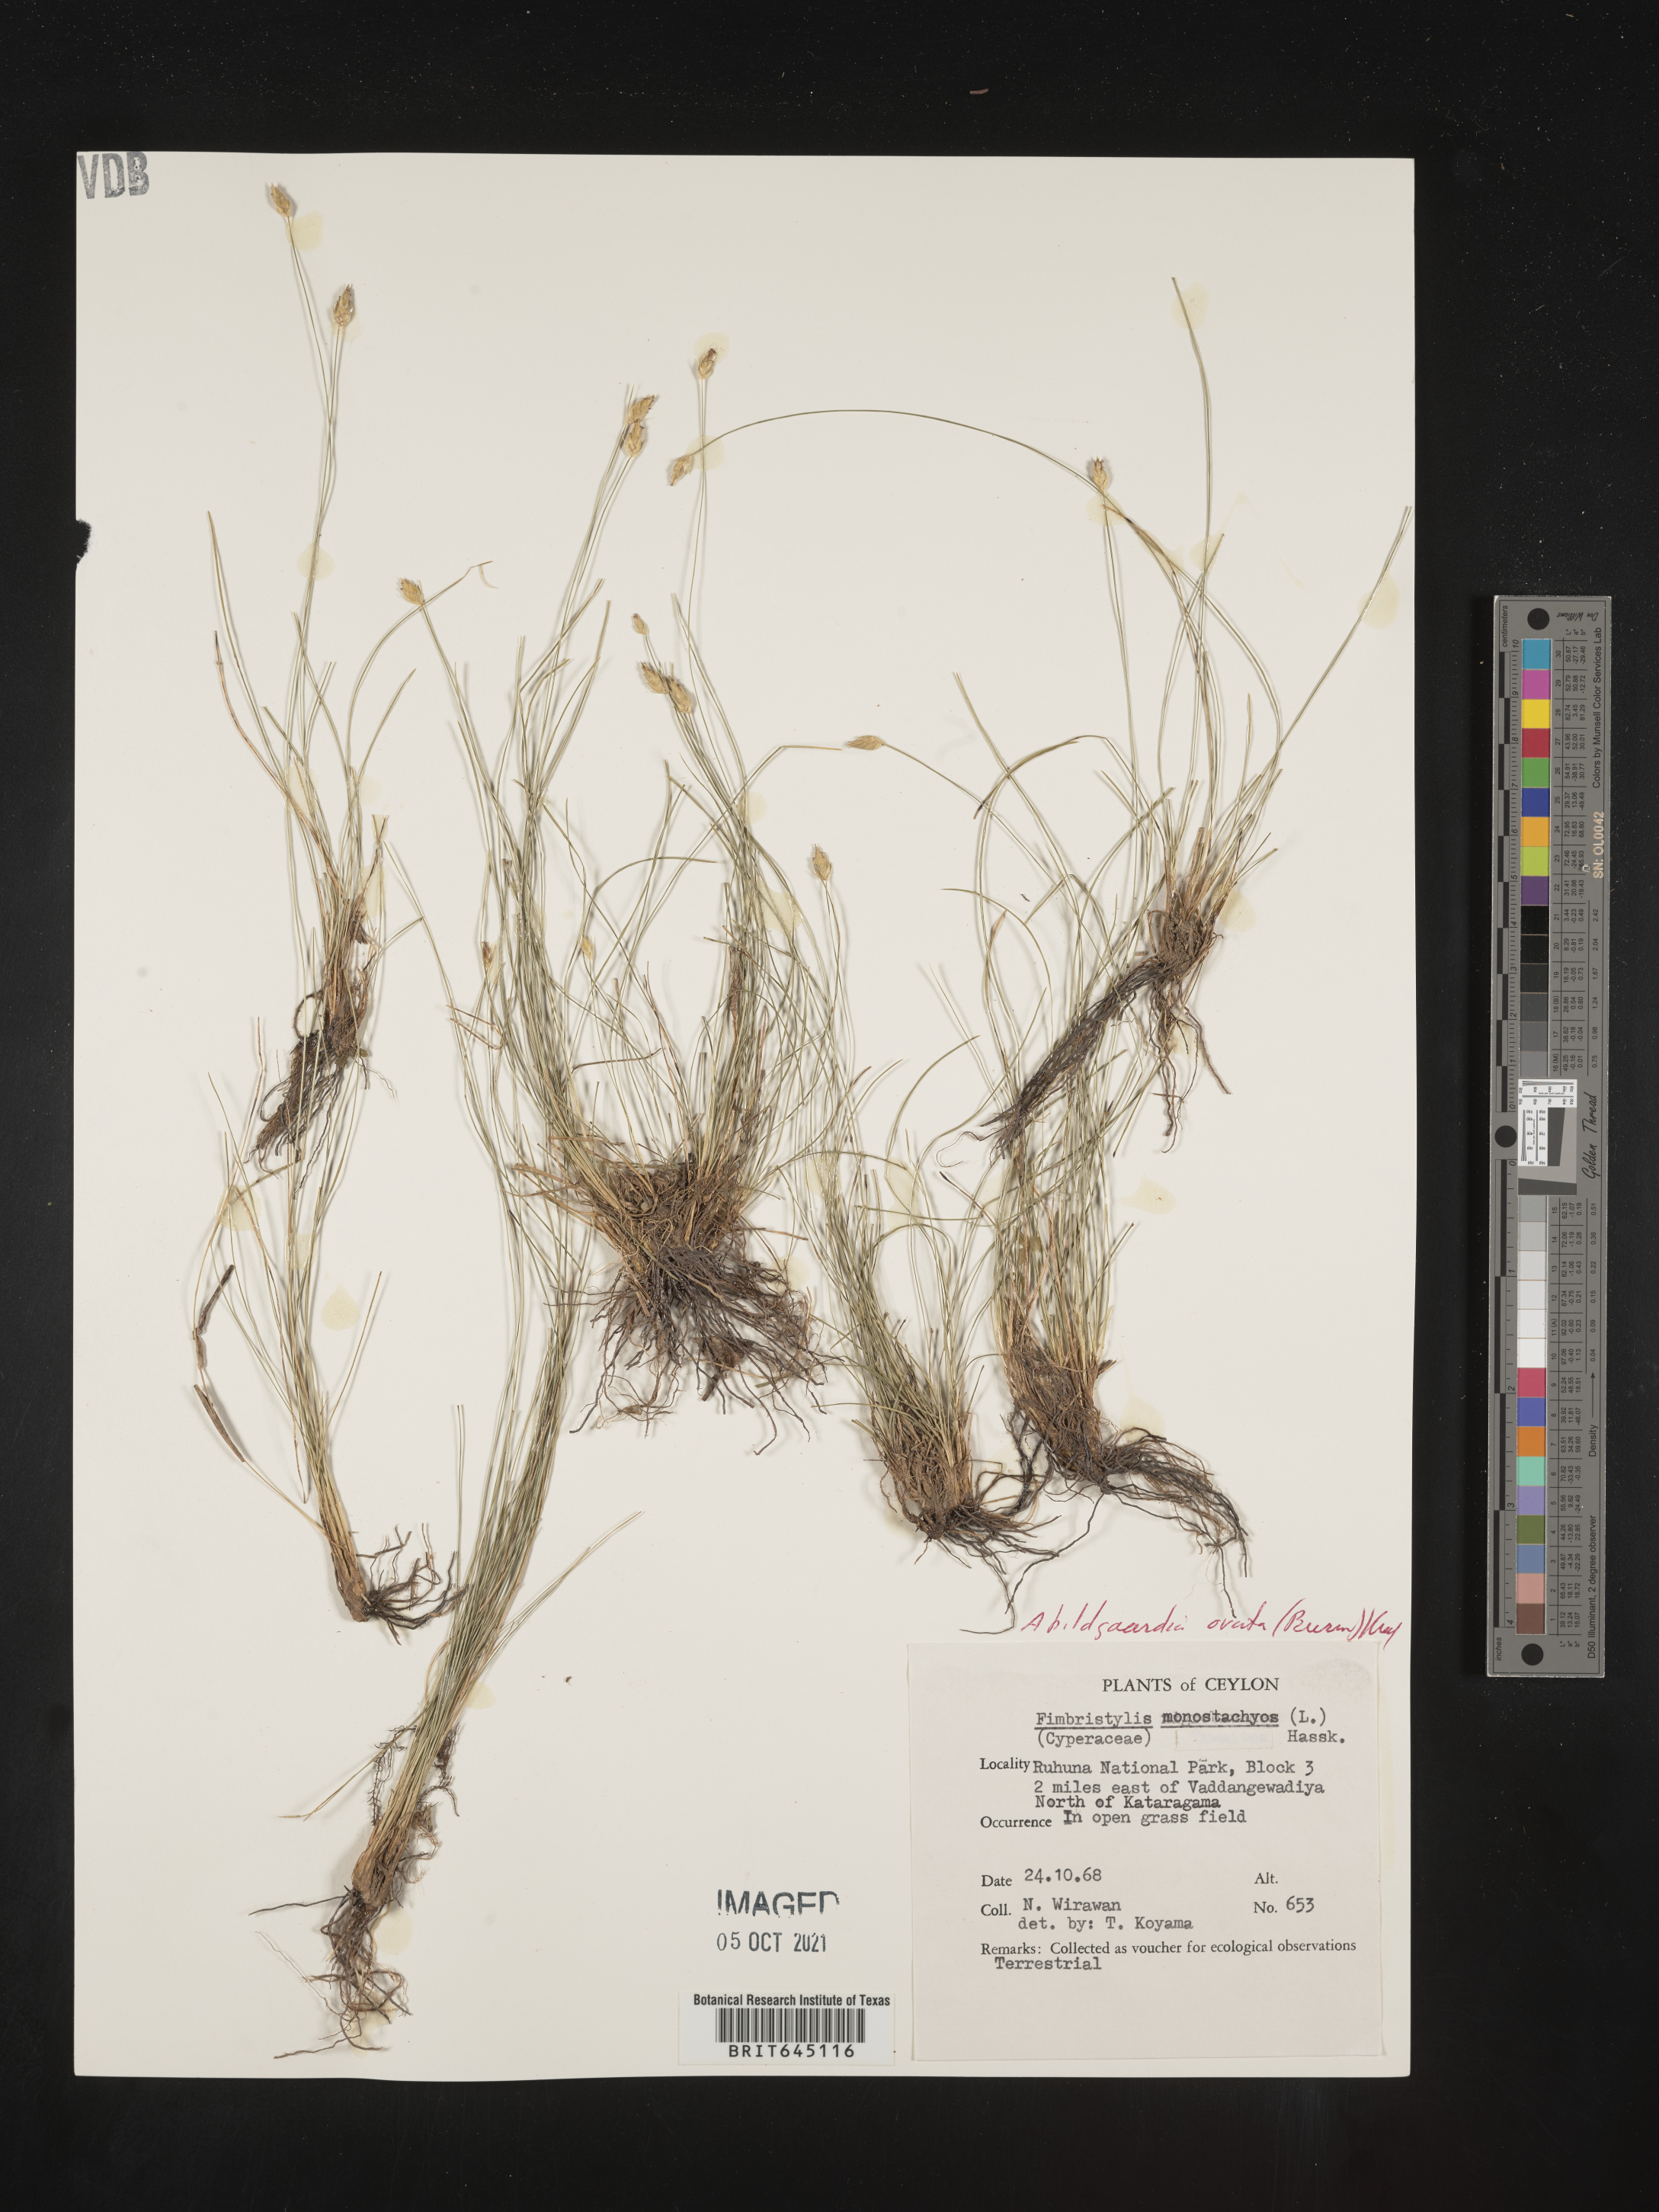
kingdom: Plantae
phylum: Tracheophyta
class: Liliopsida
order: Poales
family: Cyperaceae
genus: Abildgaardia
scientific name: Abildgaardia ovata
